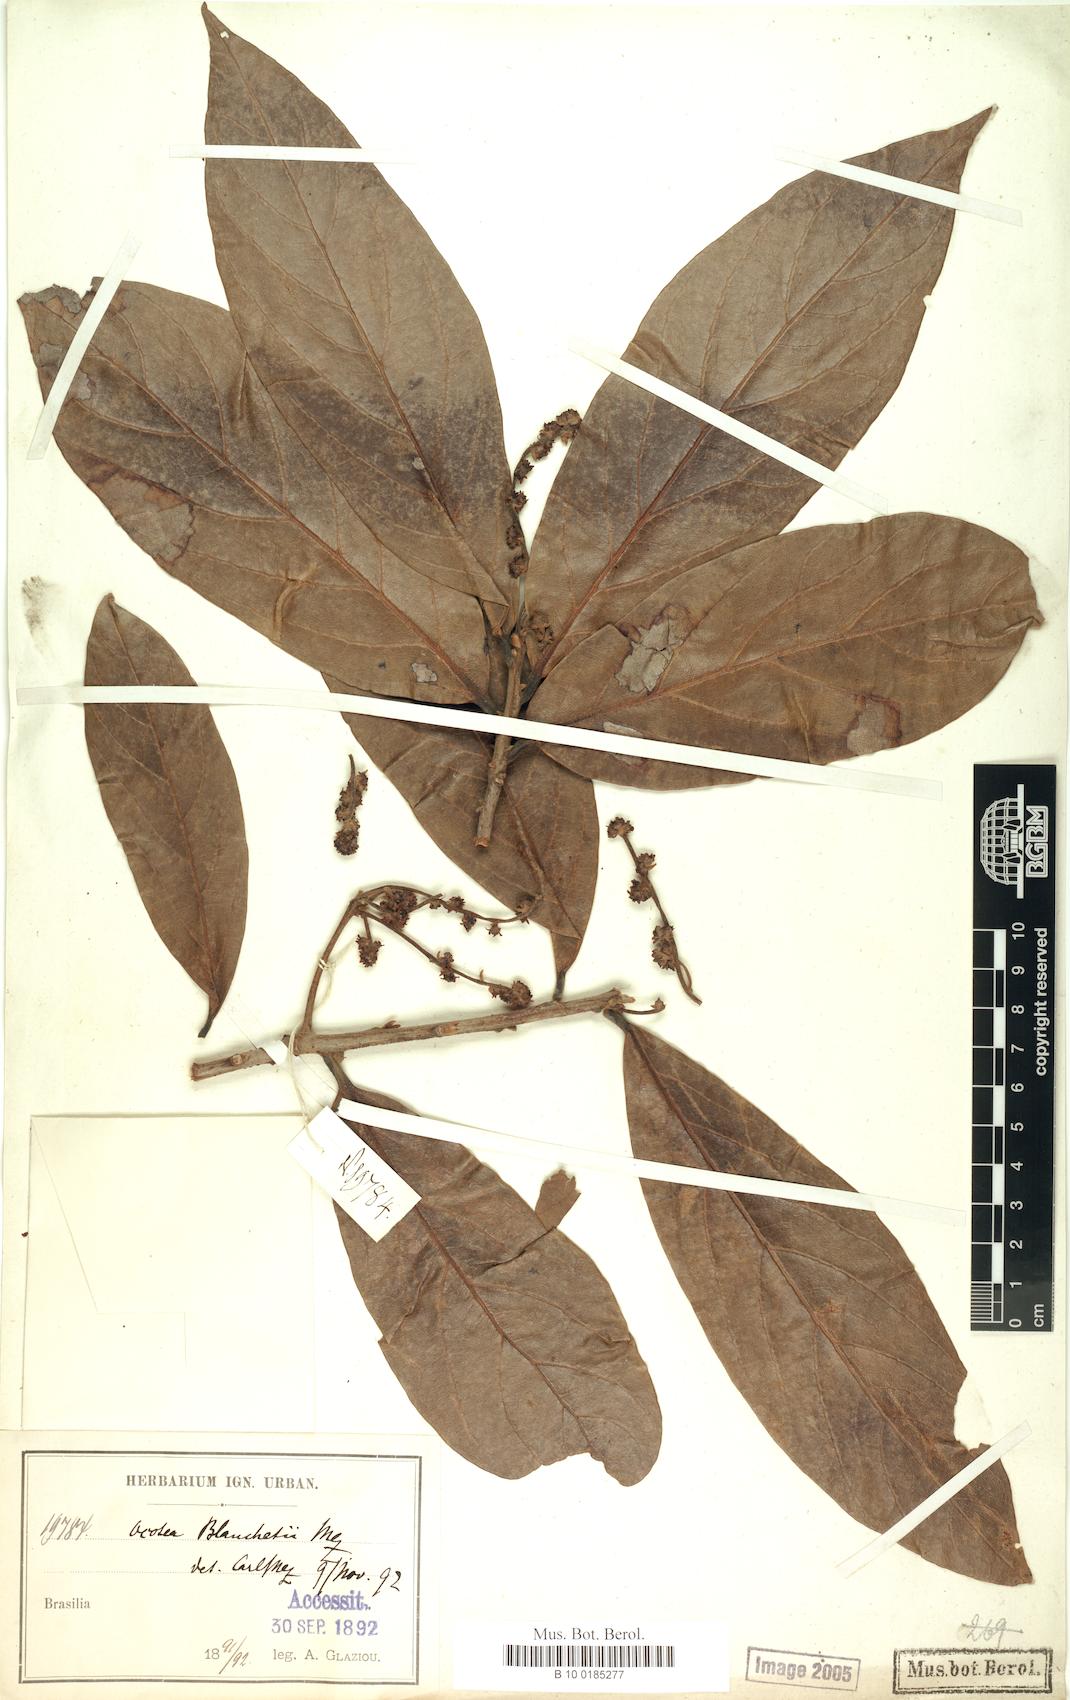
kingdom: Plantae
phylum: Tracheophyta
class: Magnoliopsida
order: Laurales
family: Lauraceae
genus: Andea
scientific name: Andea velutina
